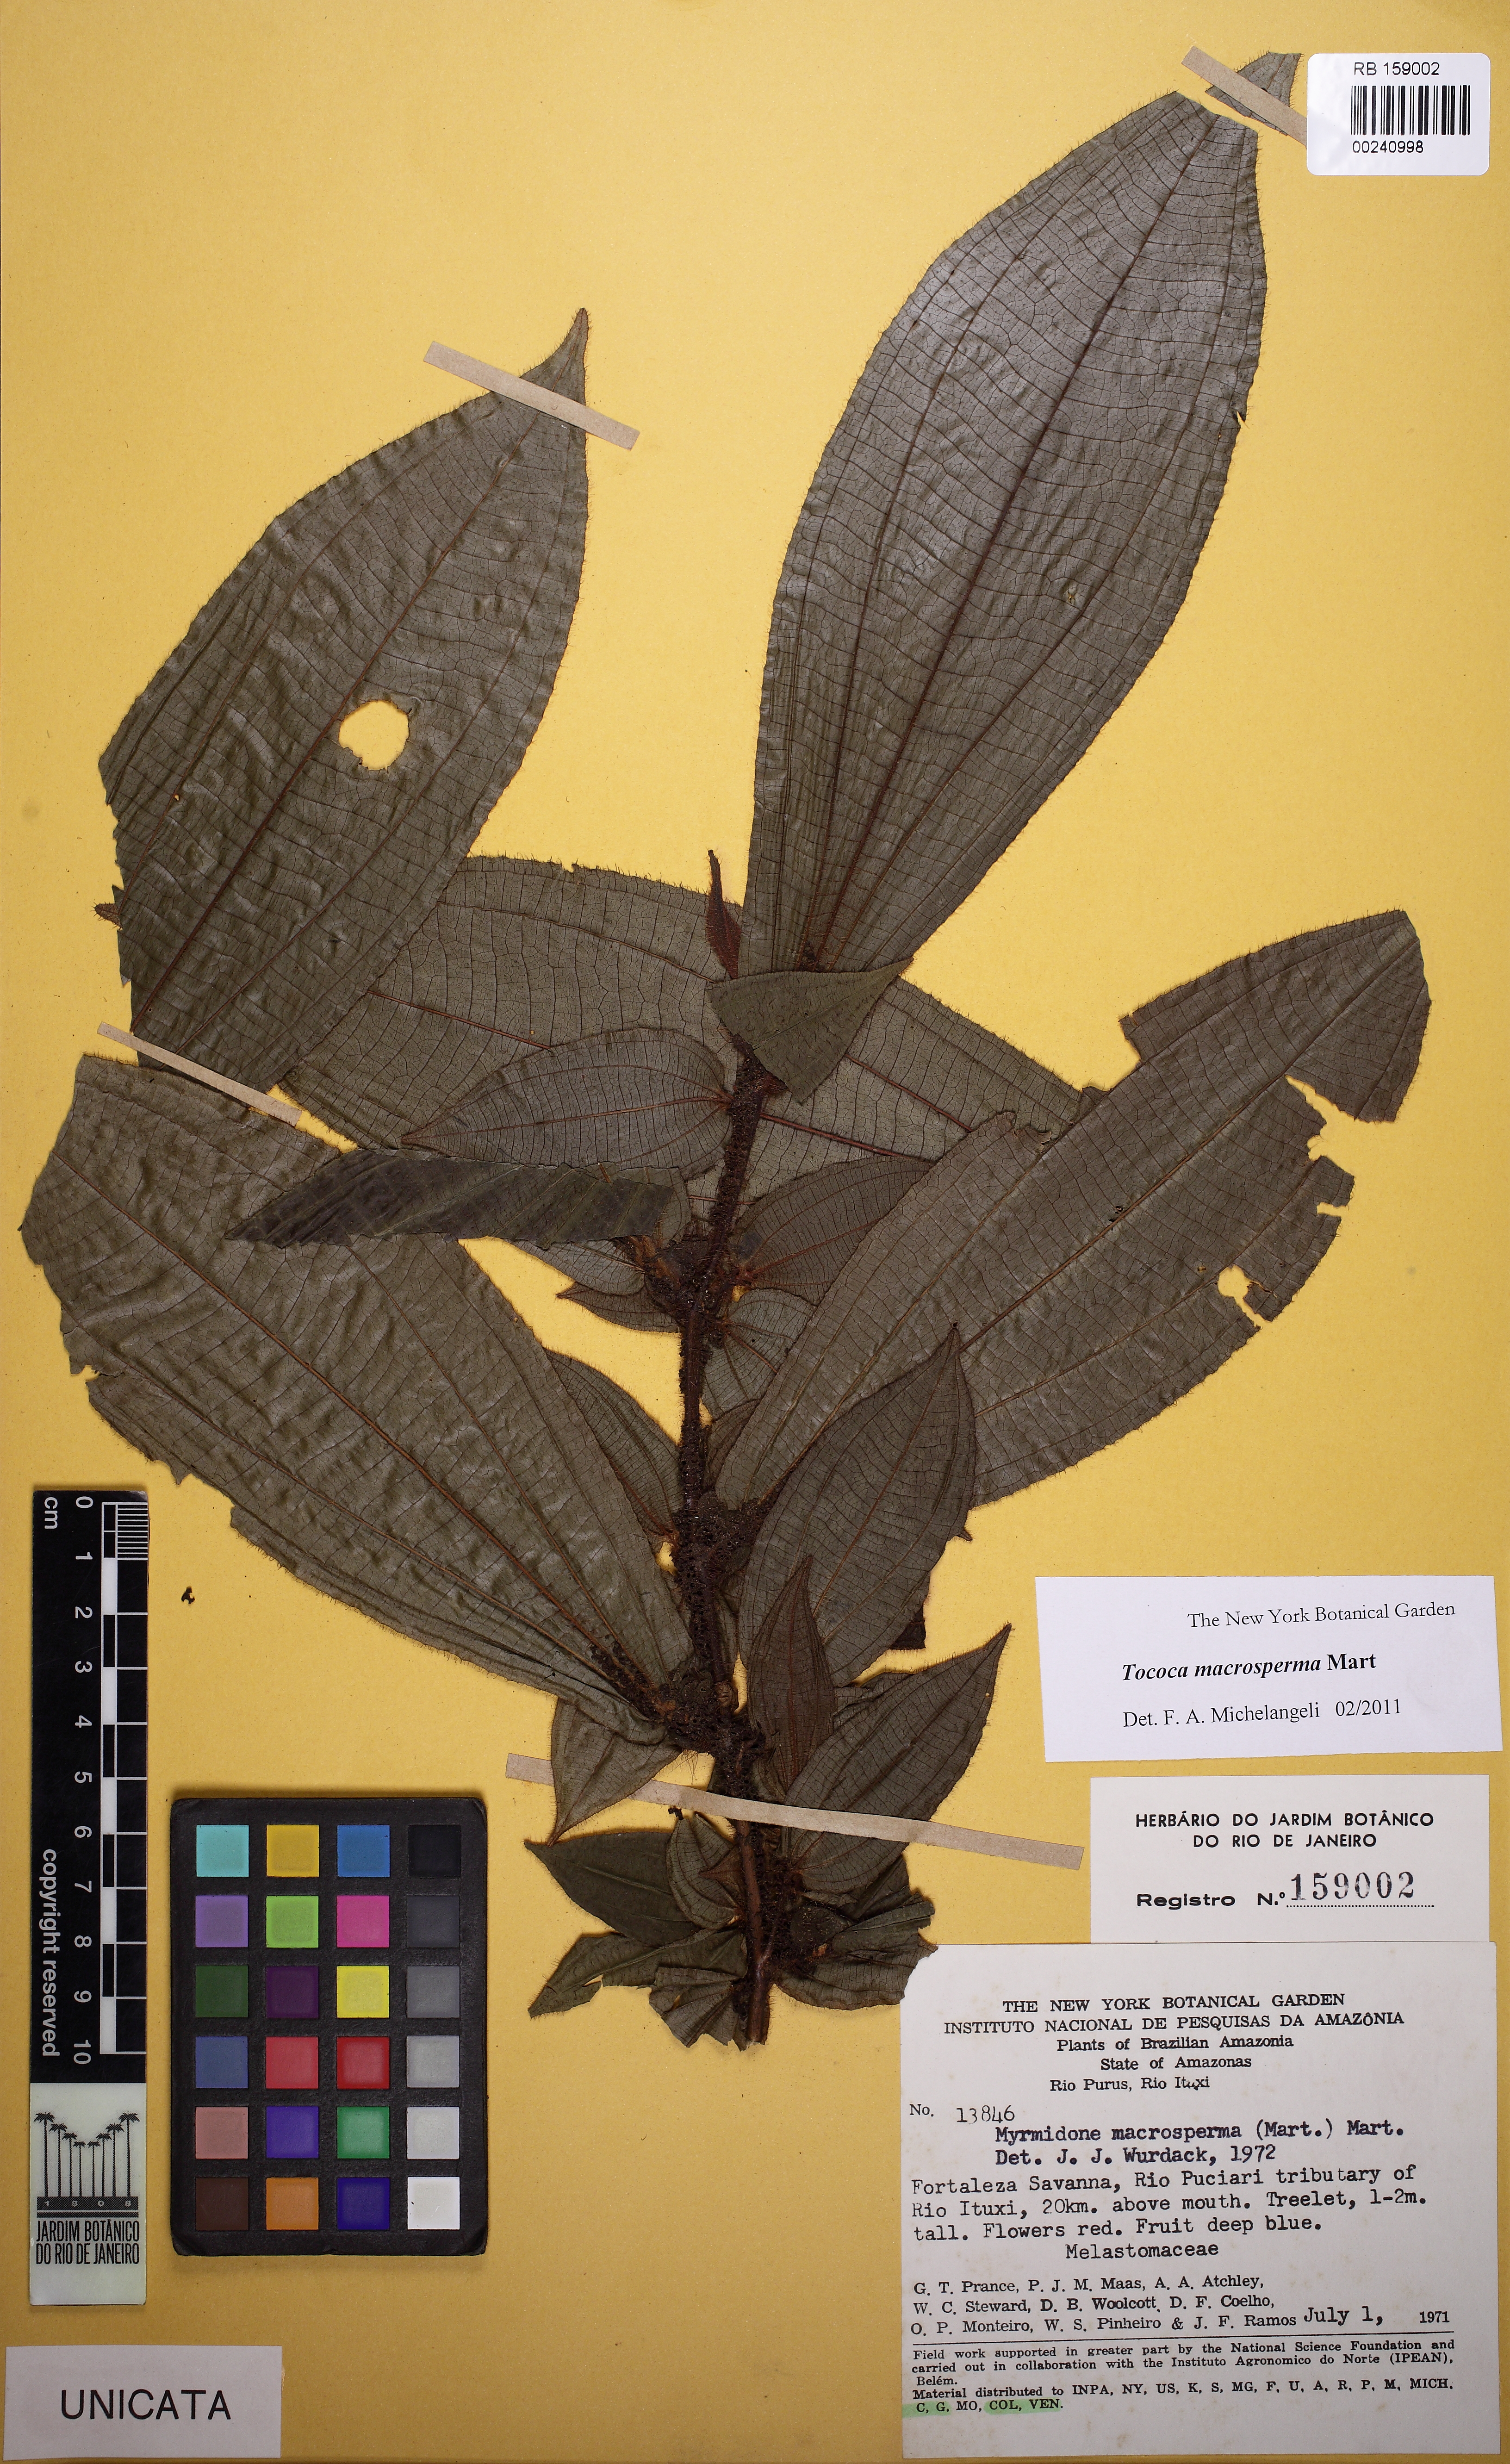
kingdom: Plantae
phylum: Tracheophyta
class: Magnoliopsida
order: Myrtales
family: Melastomataceae
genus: Miconia
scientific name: Miconia macrosperma
